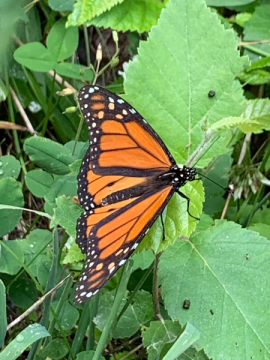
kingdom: Animalia
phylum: Arthropoda
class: Insecta
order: Lepidoptera
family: Nymphalidae
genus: Danaus
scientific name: Danaus plexippus
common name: Monarch
